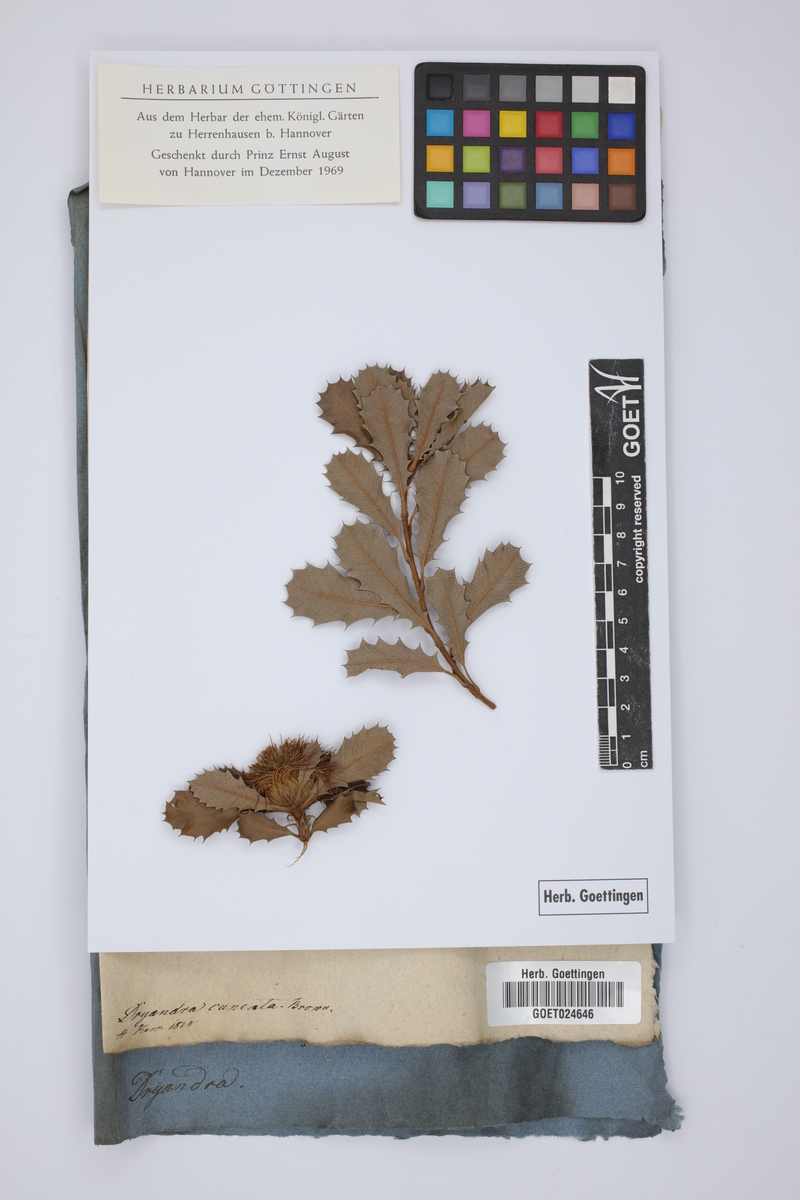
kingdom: Plantae
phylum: Tracheophyta
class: Magnoliopsida
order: Proteales
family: Proteaceae
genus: Banksia
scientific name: Banksia obovata
